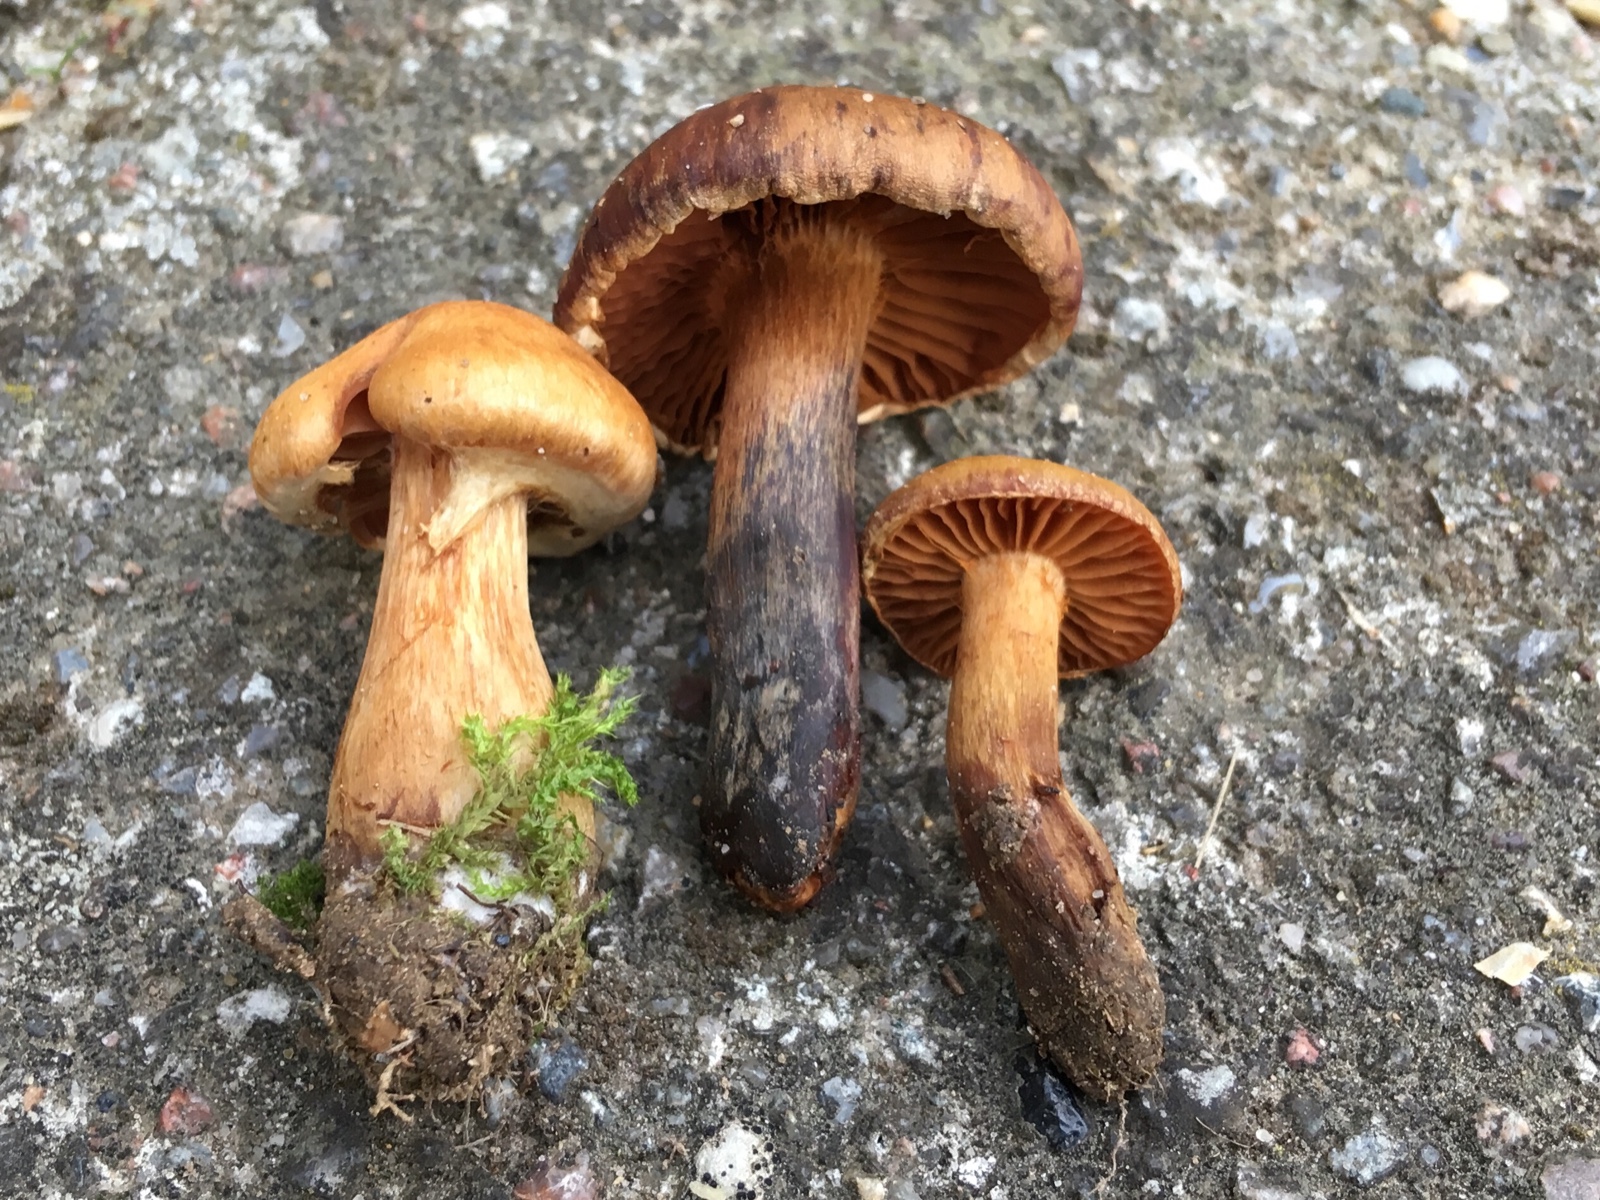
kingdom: Fungi
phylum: Basidiomycota
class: Agaricomycetes
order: Agaricales
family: Cortinariaceae
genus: Cortinarius
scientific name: Cortinarius hinnuleus
